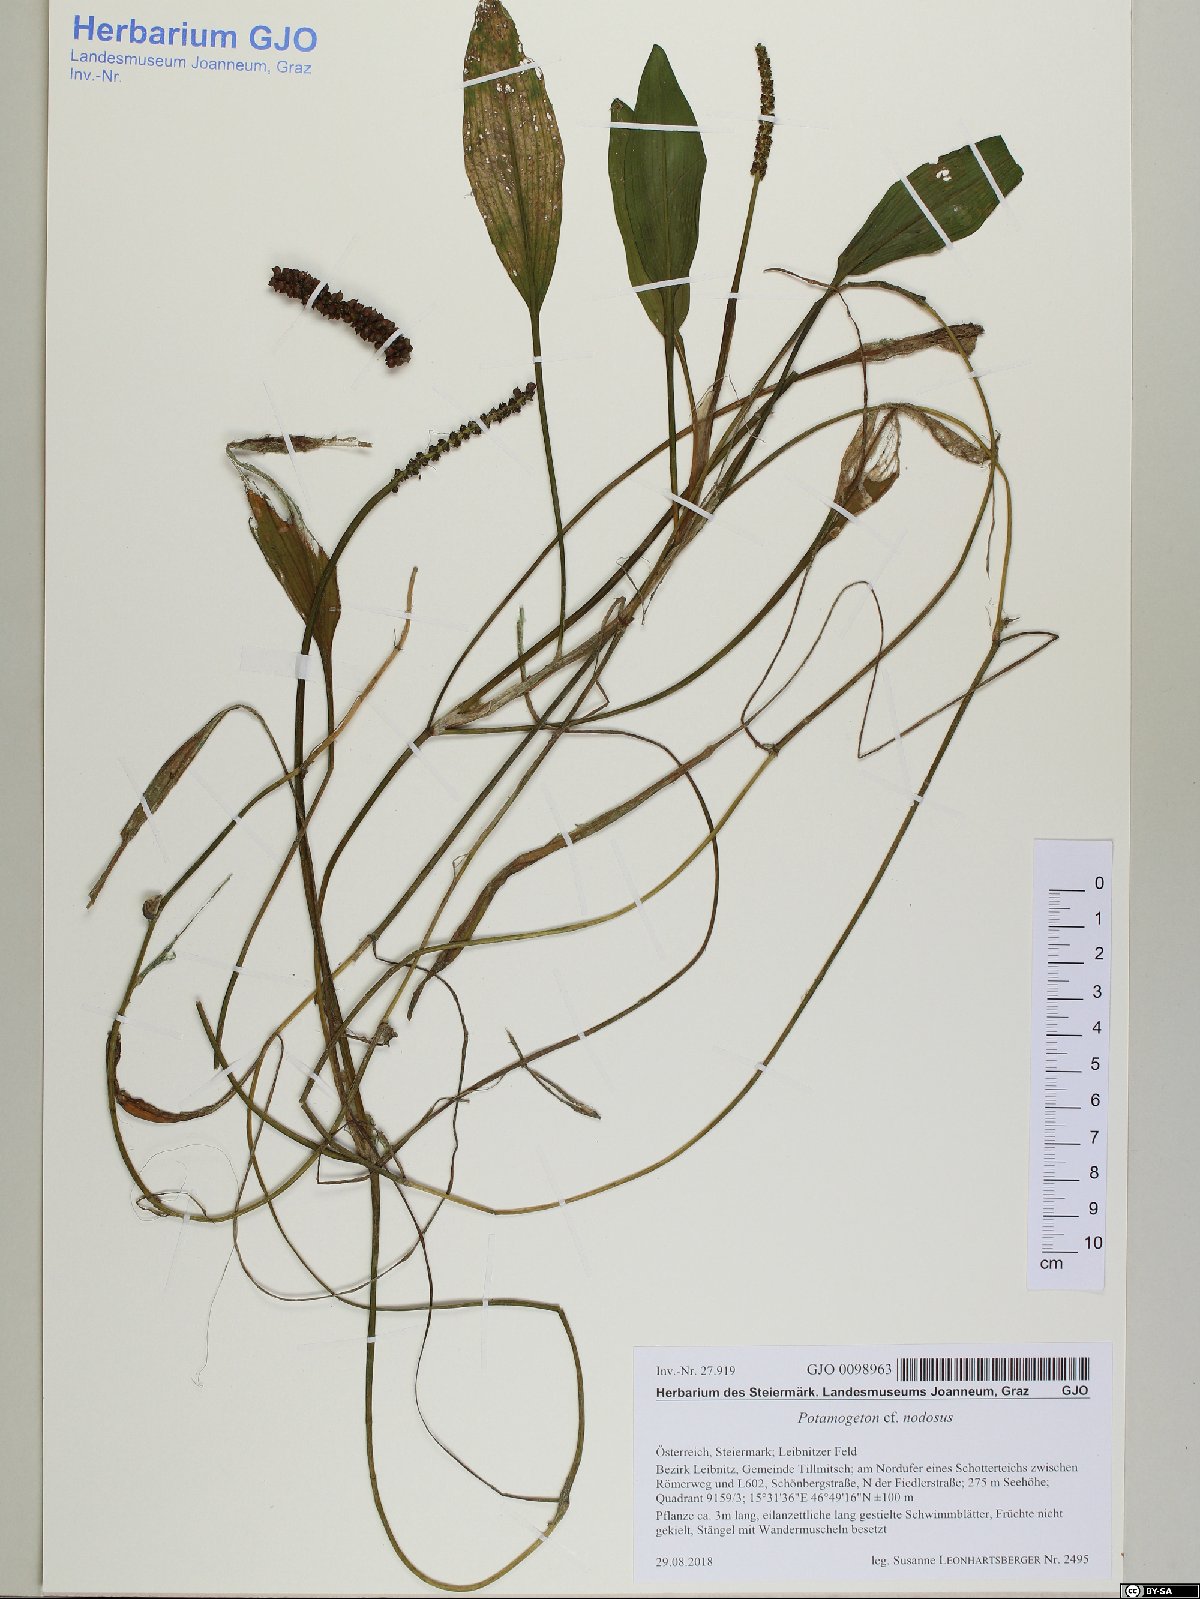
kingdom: Plantae
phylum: Tracheophyta
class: Liliopsida
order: Alismatales
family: Potamogetonaceae
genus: Potamogeton
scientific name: Potamogeton nodosus
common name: Loddon pondweed
